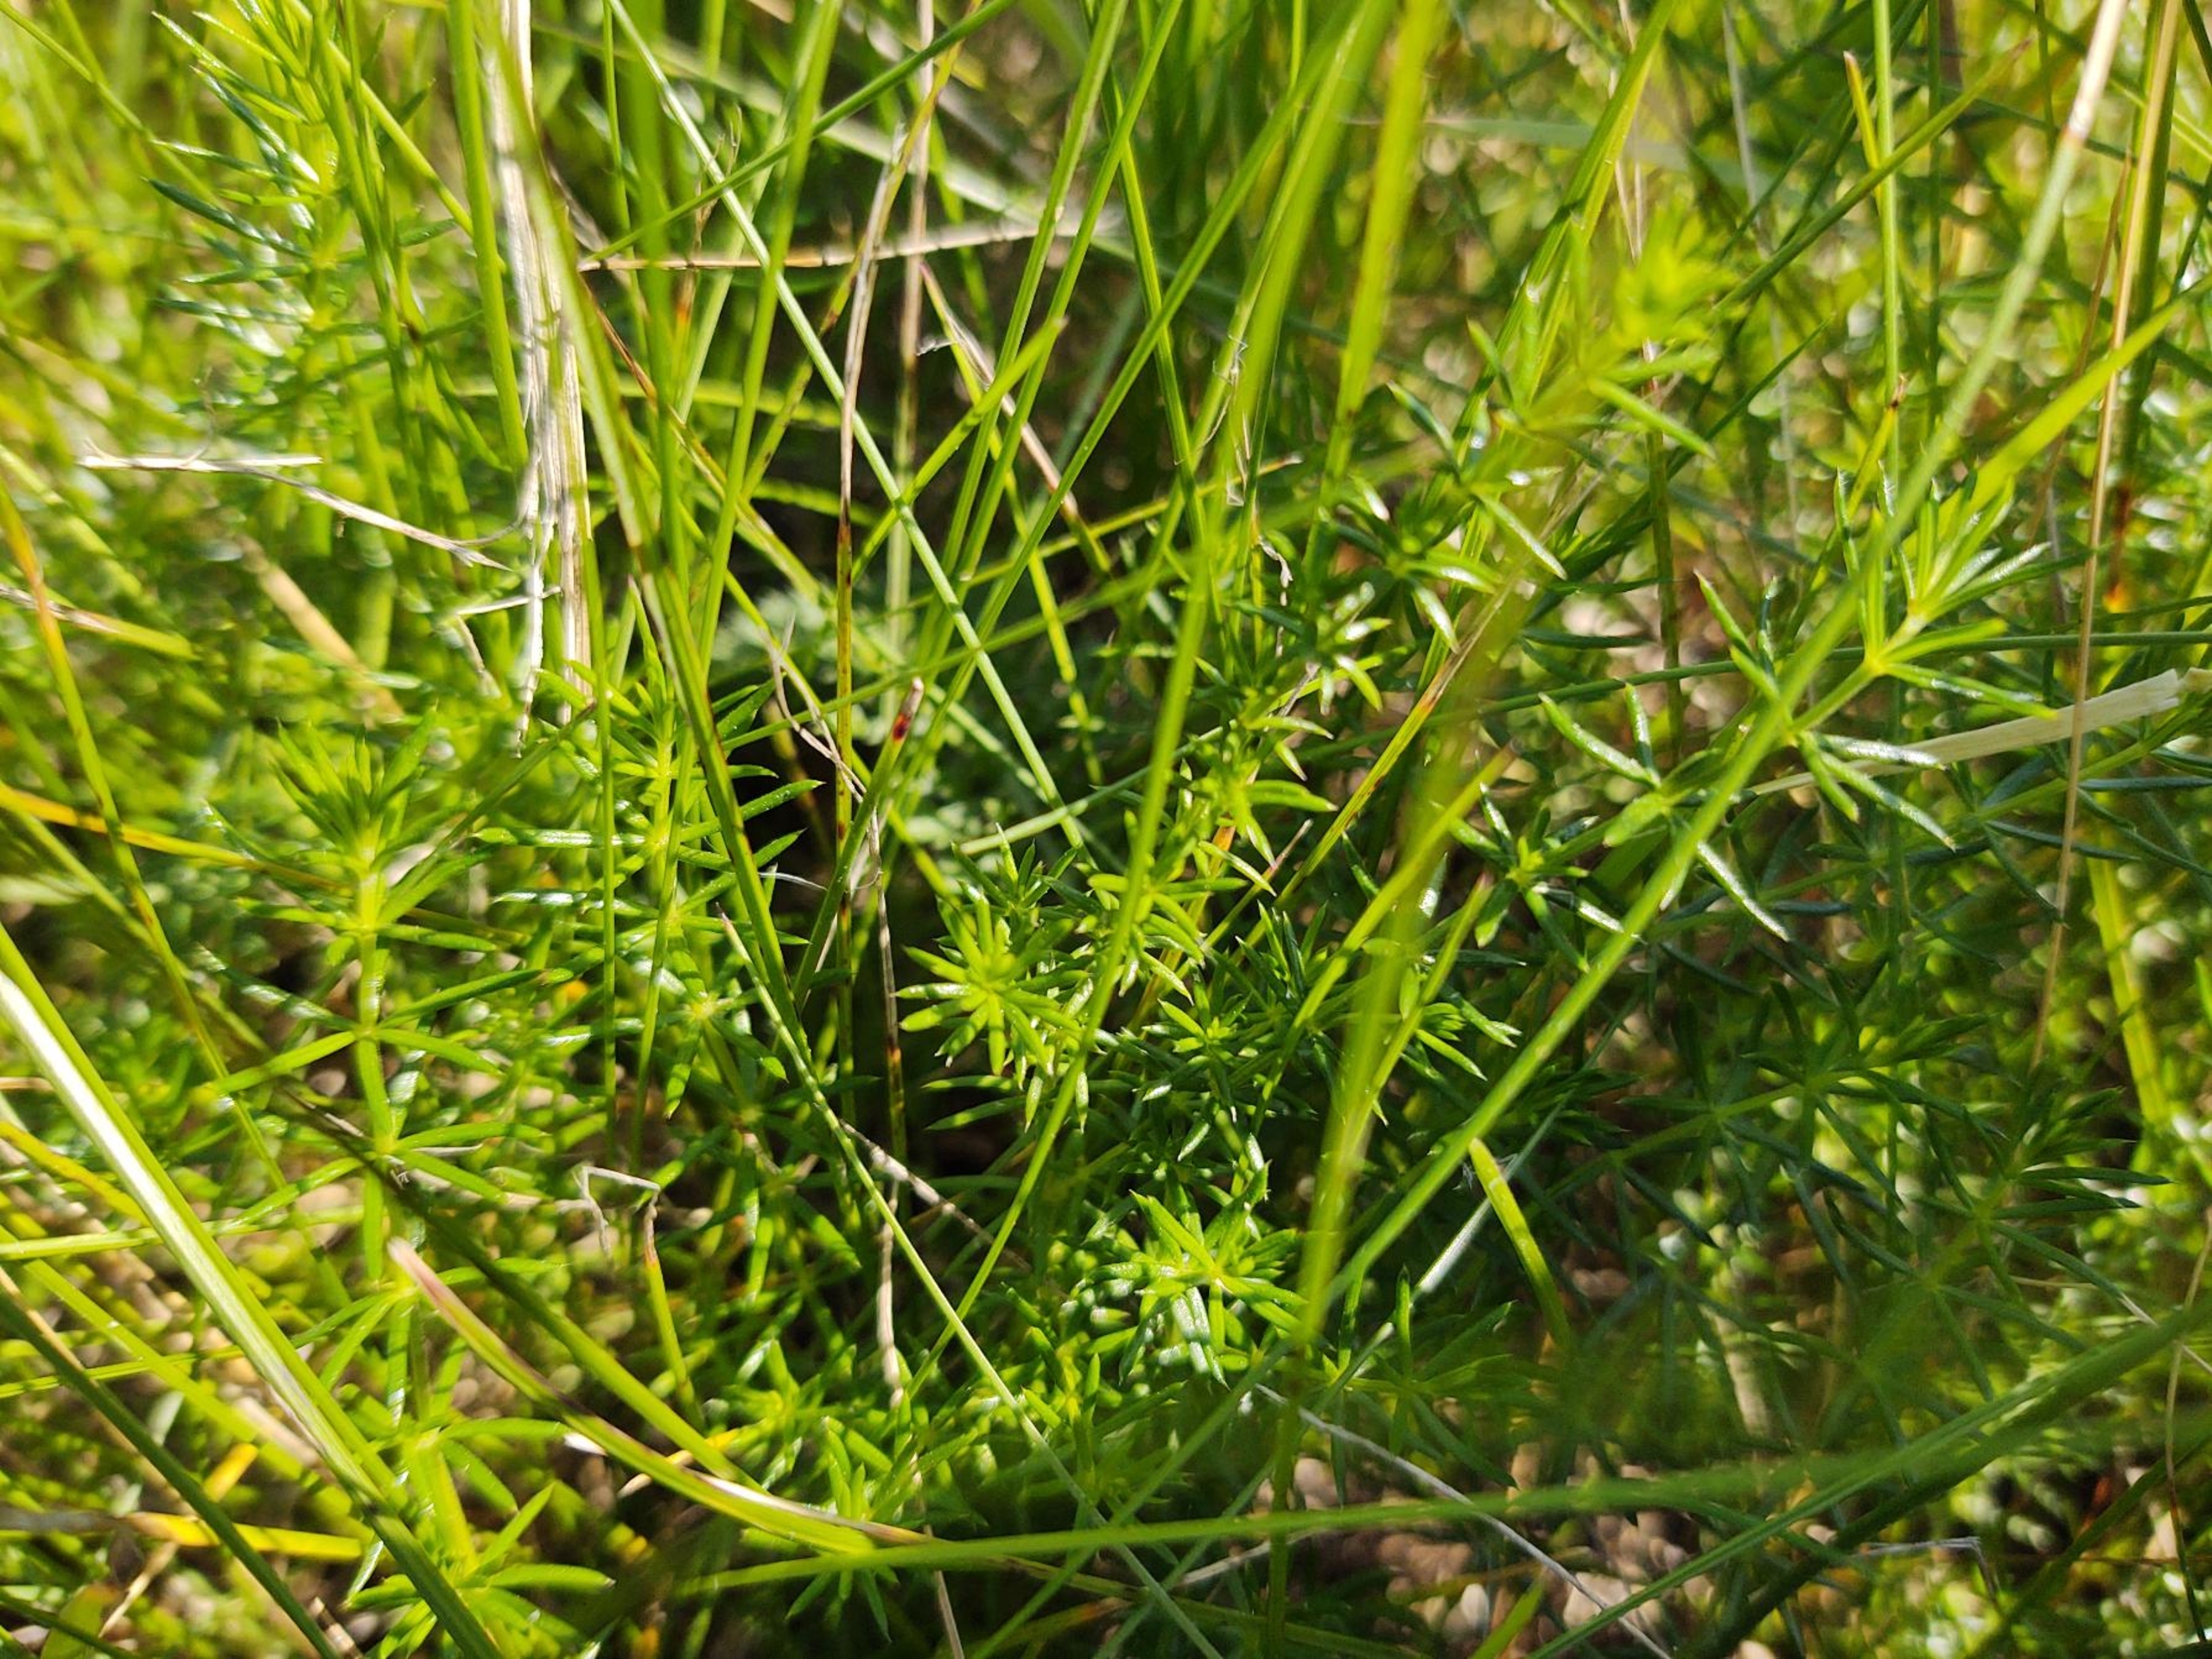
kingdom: Plantae
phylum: Tracheophyta
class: Magnoliopsida
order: Gentianales
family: Rubiaceae
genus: Galium
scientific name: Galium verum
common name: Gul snerre
